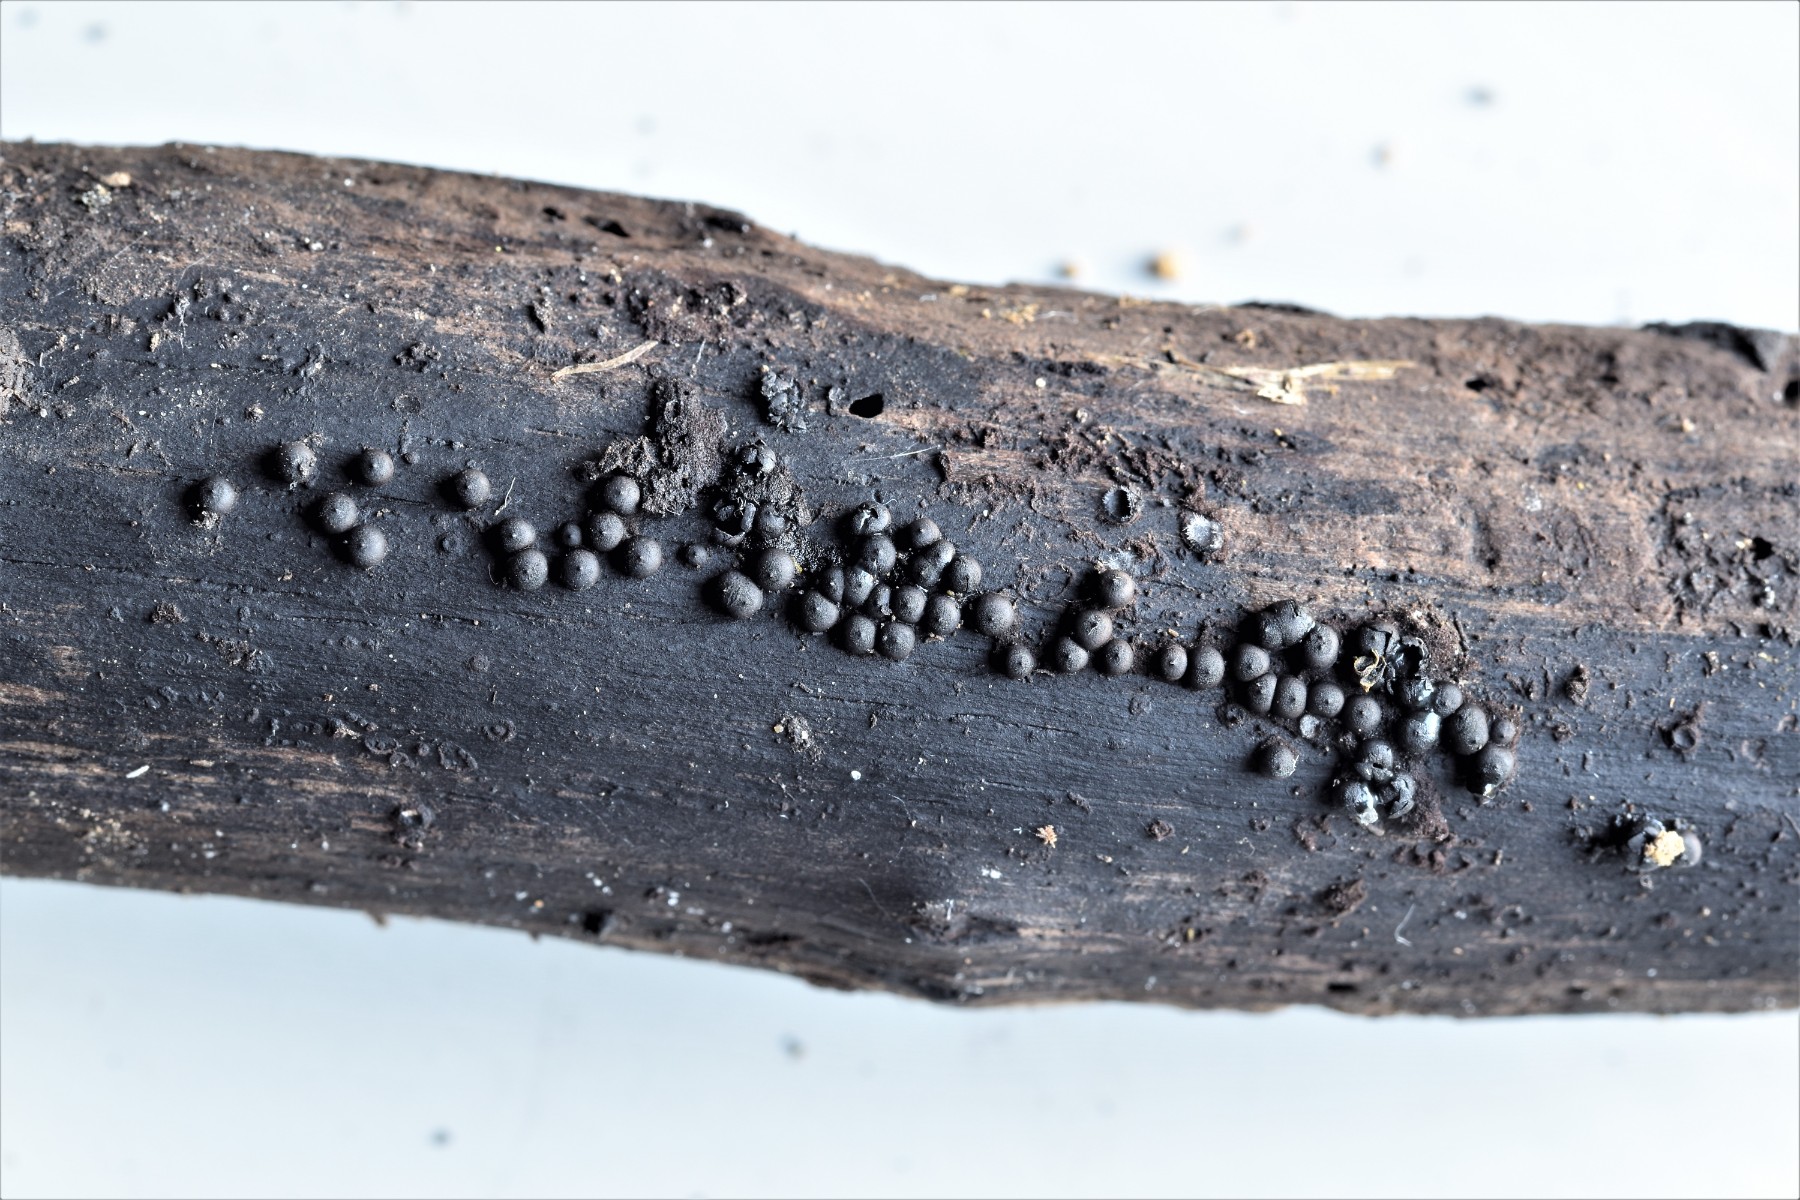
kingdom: Fungi
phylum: Ascomycota
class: Sordariomycetes
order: Xylariales
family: Xylariaceae
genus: Rosellinia
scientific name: Rosellinia marcucciana
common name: måtteløs kulkaviar
